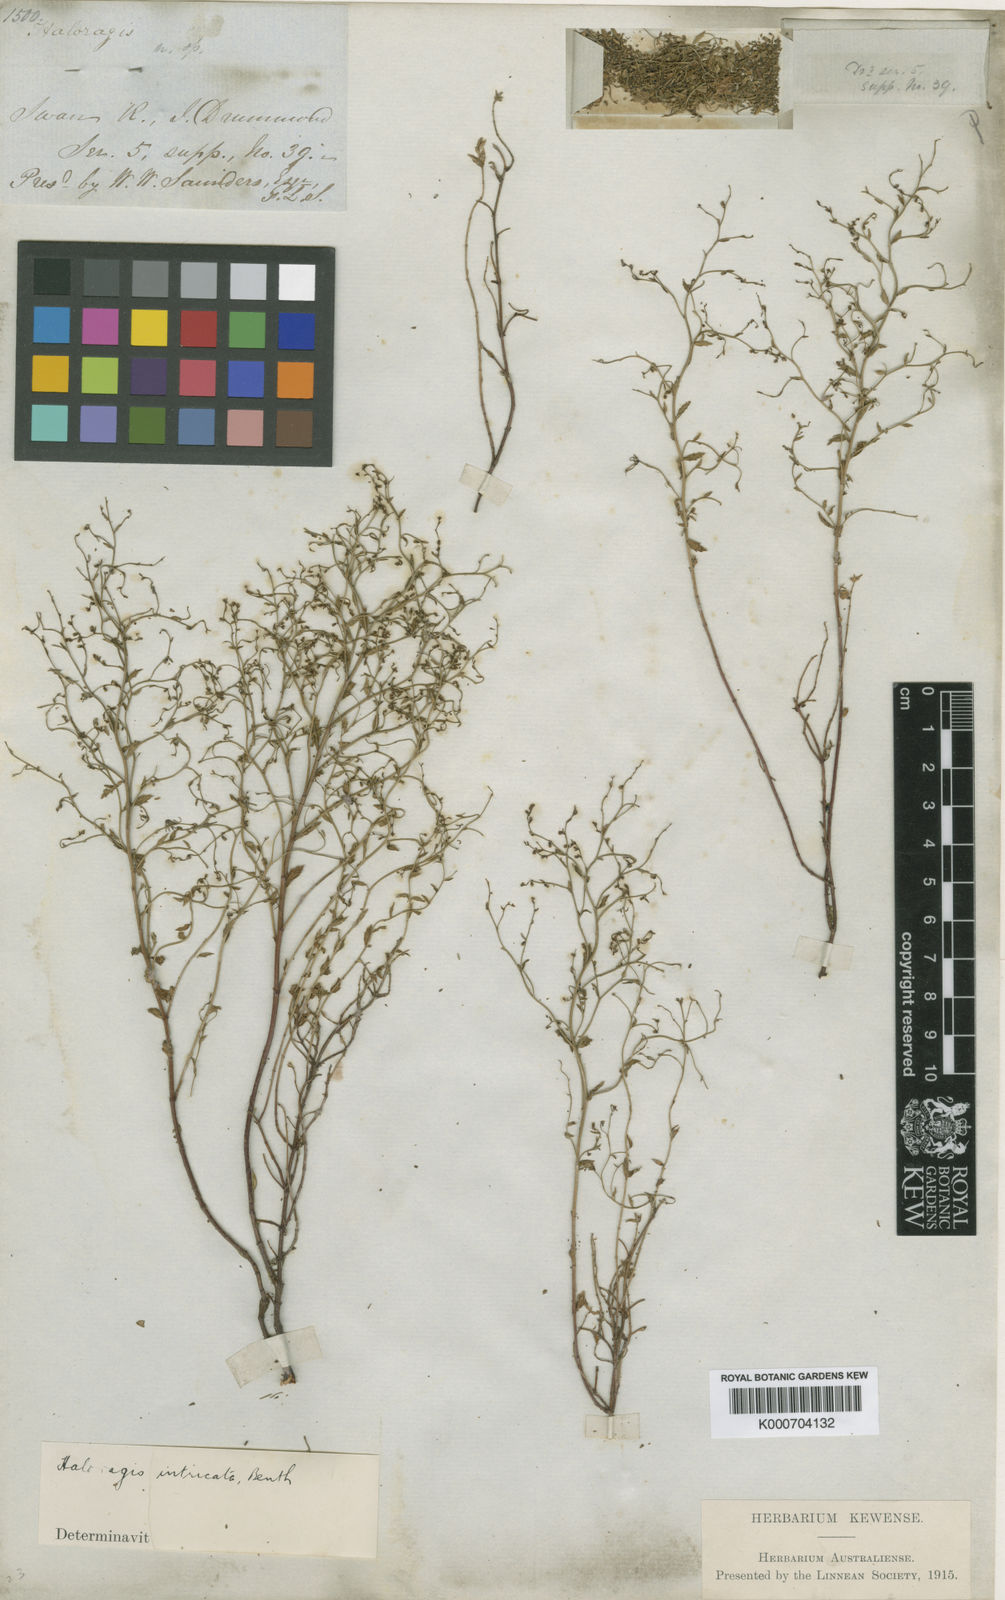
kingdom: Plantae
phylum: Tracheophyta
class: Magnoliopsida
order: Saxifragales
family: Haloragaceae
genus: Gonocarpus
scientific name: Gonocarpus intricatus
